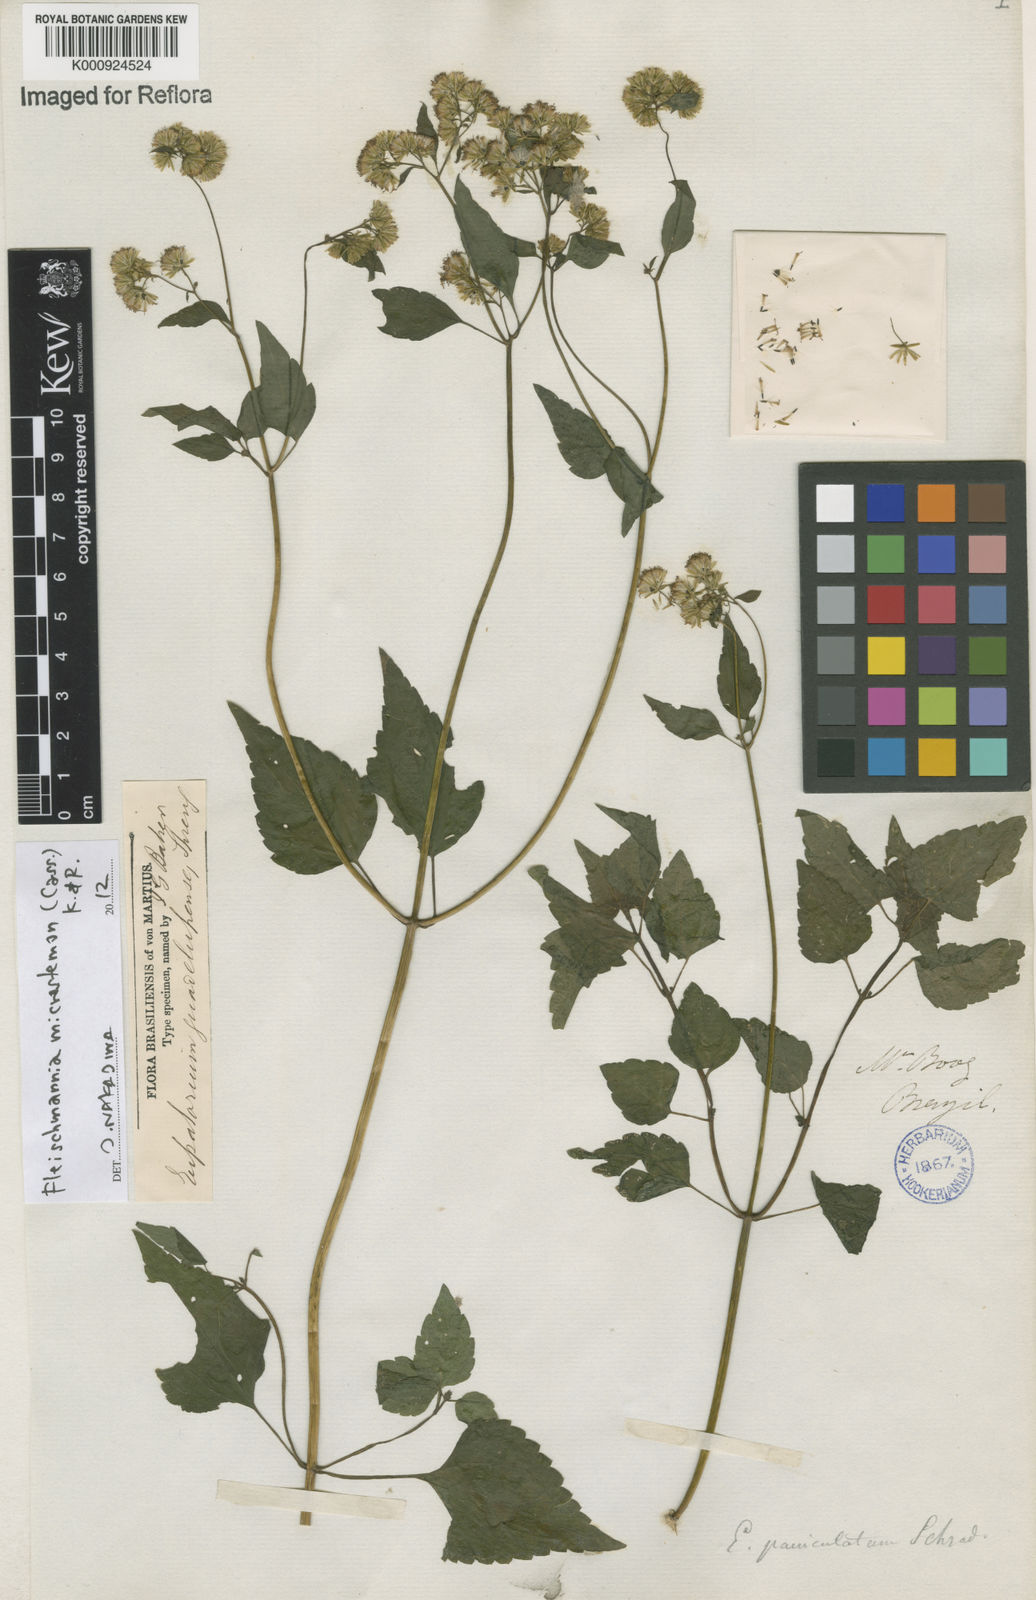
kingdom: Plantae
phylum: Tracheophyta
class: Magnoliopsida
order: Asterales
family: Asteraceae
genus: Fleischmannia
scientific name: Fleischmannia microstemon
